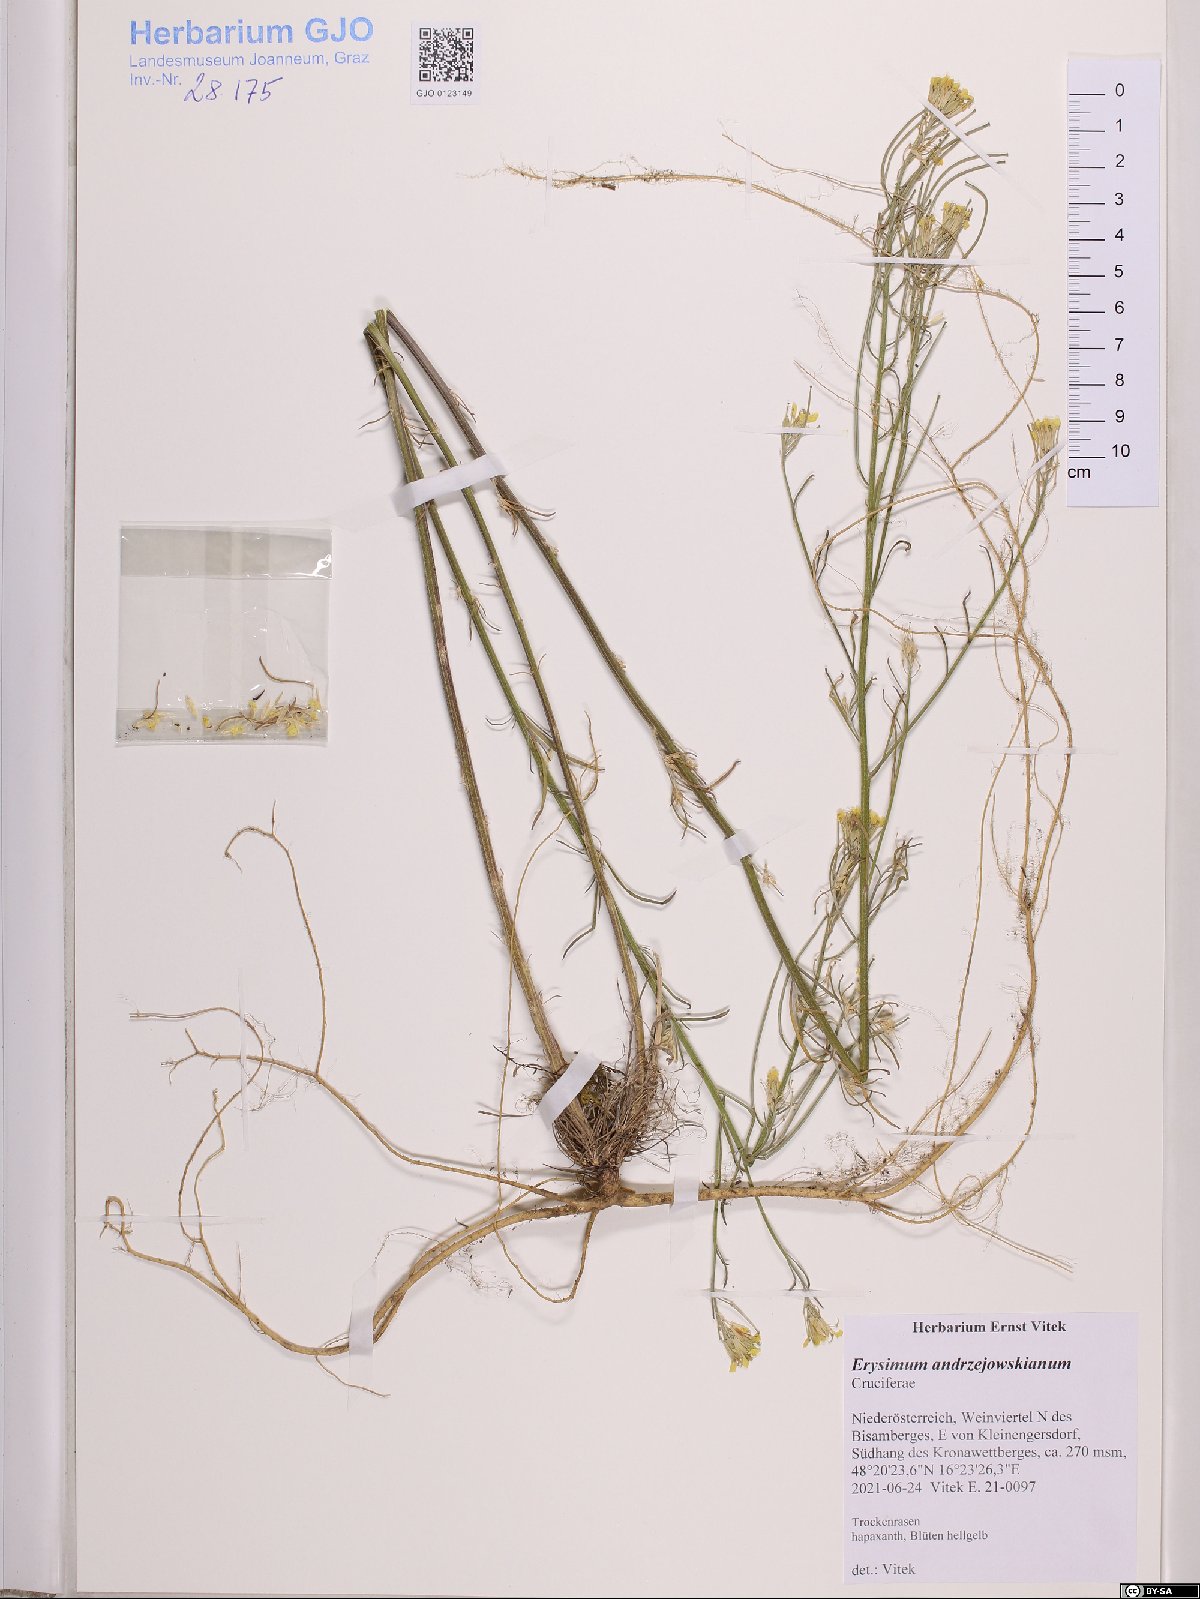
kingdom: Plantae
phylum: Tracheophyta
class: Magnoliopsida
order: Brassicales
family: Brassicaceae
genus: Erysimum
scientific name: Erysimum andrzejowskianum
